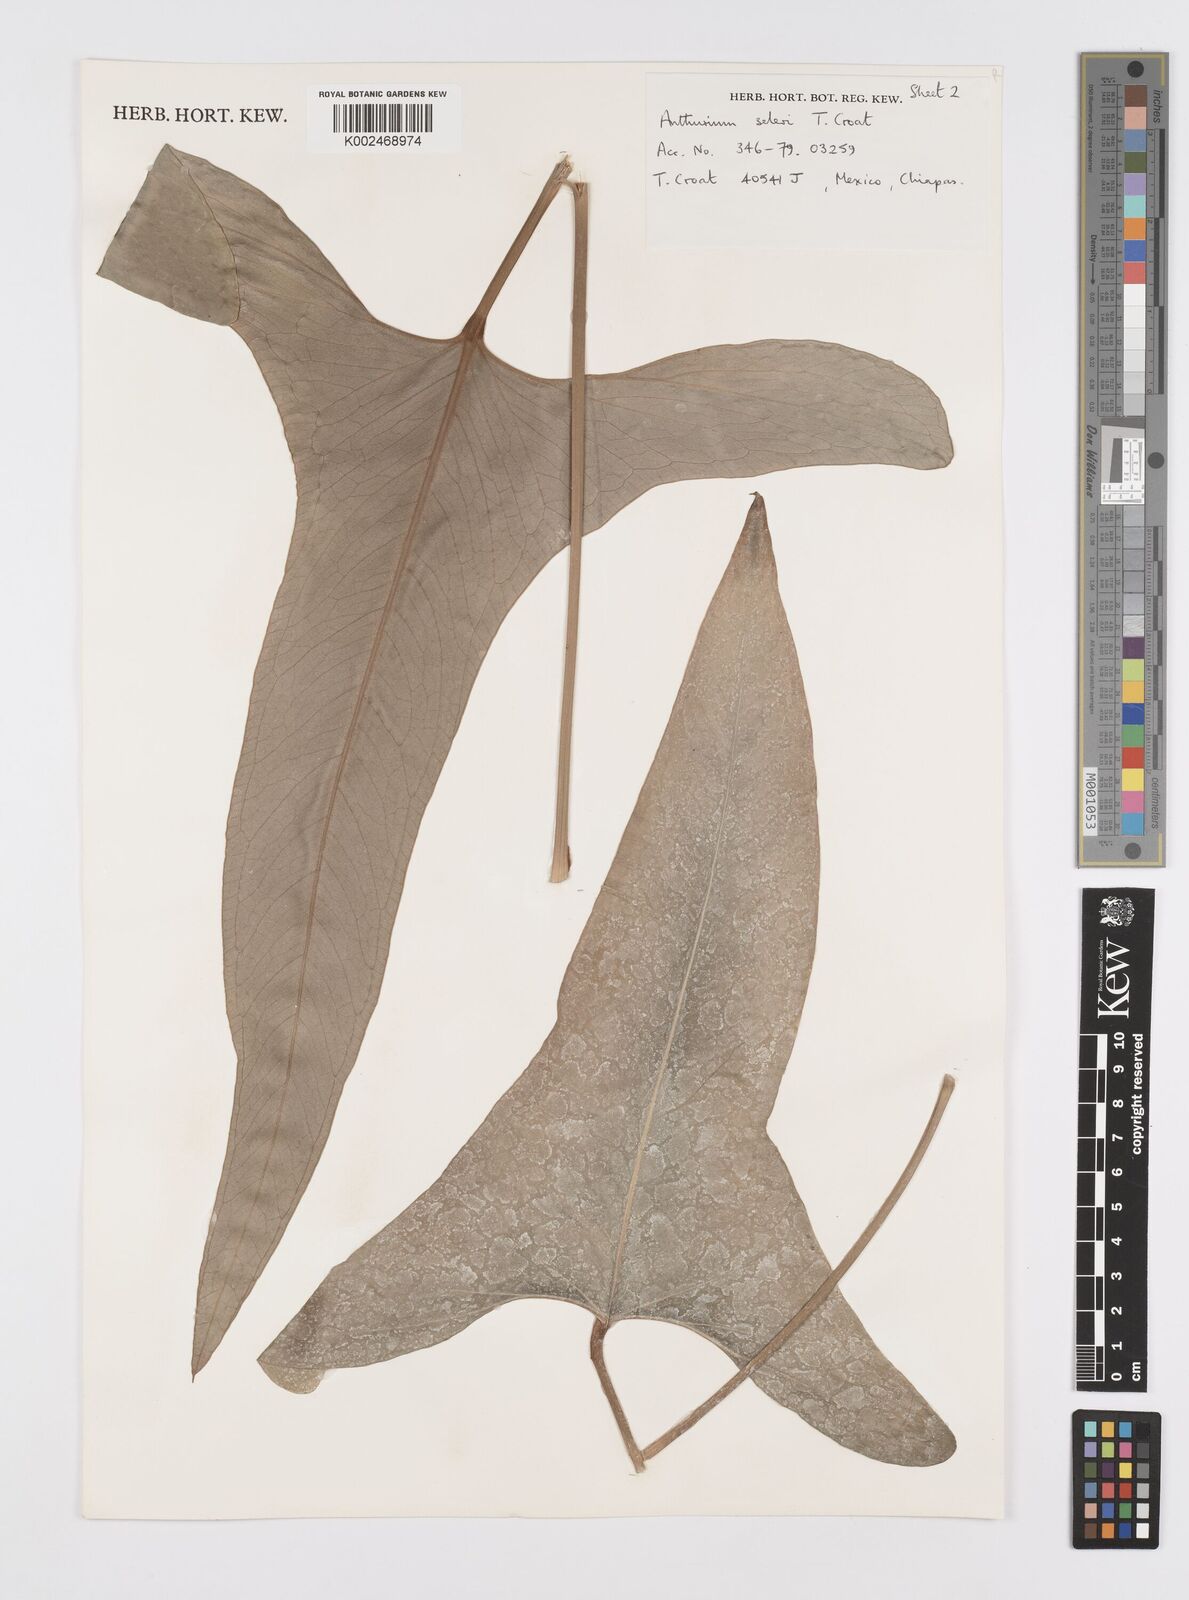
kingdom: Plantae
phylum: Tracheophyta
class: Liliopsida
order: Alismatales
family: Araceae
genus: Anthurium
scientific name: Anthurium seleri
